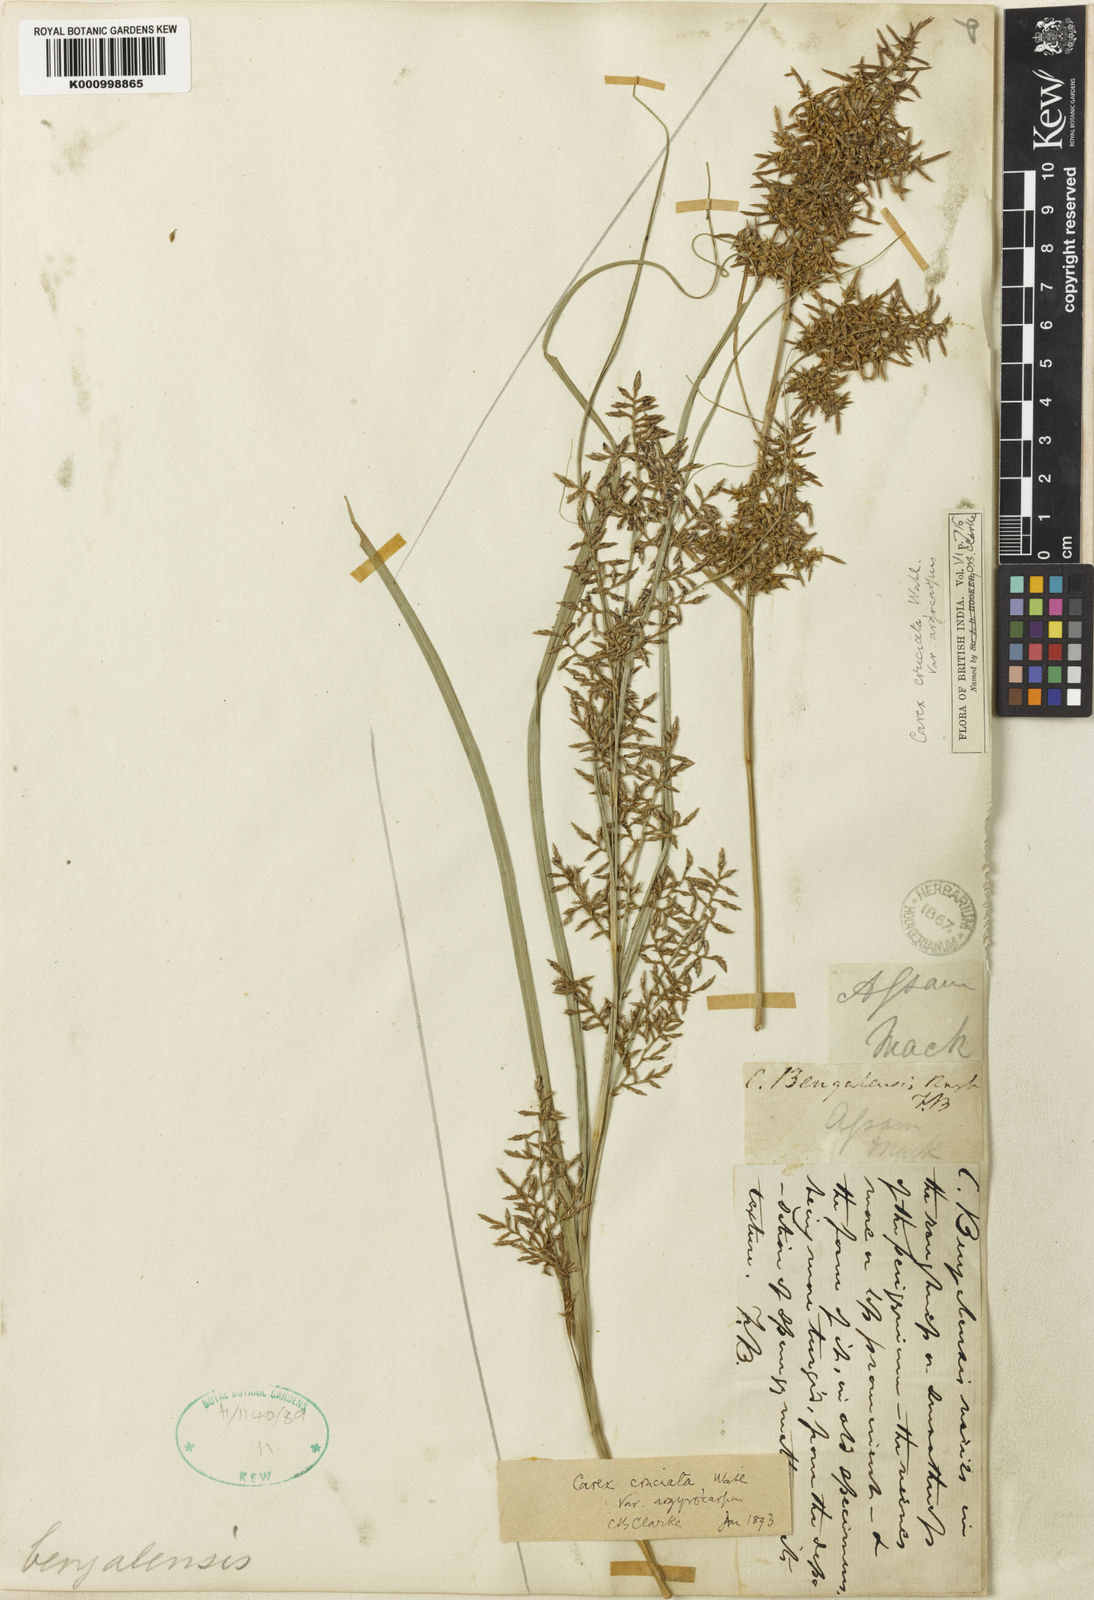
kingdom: Plantae
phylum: Tracheophyta
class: Liliopsida
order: Poales
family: Cyperaceae
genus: Carex
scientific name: Carex cruciata
